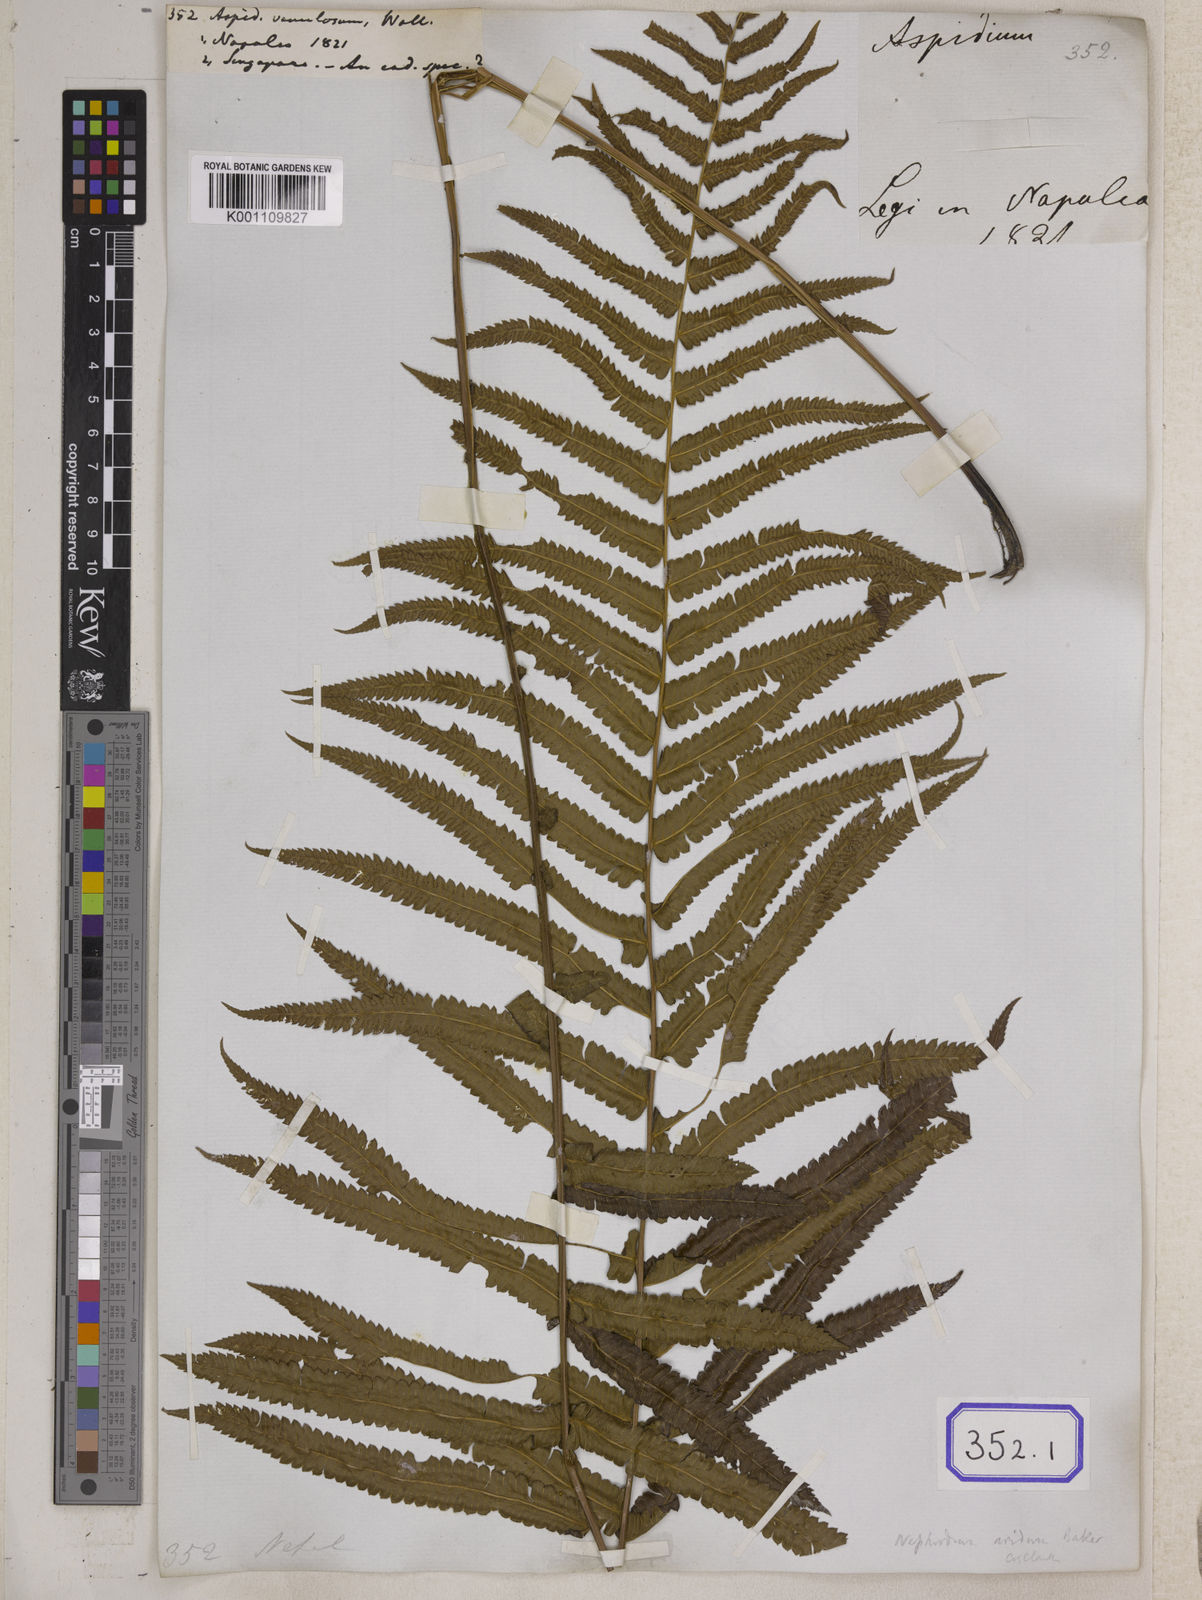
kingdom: Plantae
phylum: Tracheophyta
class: Polypodiopsida
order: Polypodiales
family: Thelypteridaceae
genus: Christella
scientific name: Christella arida
